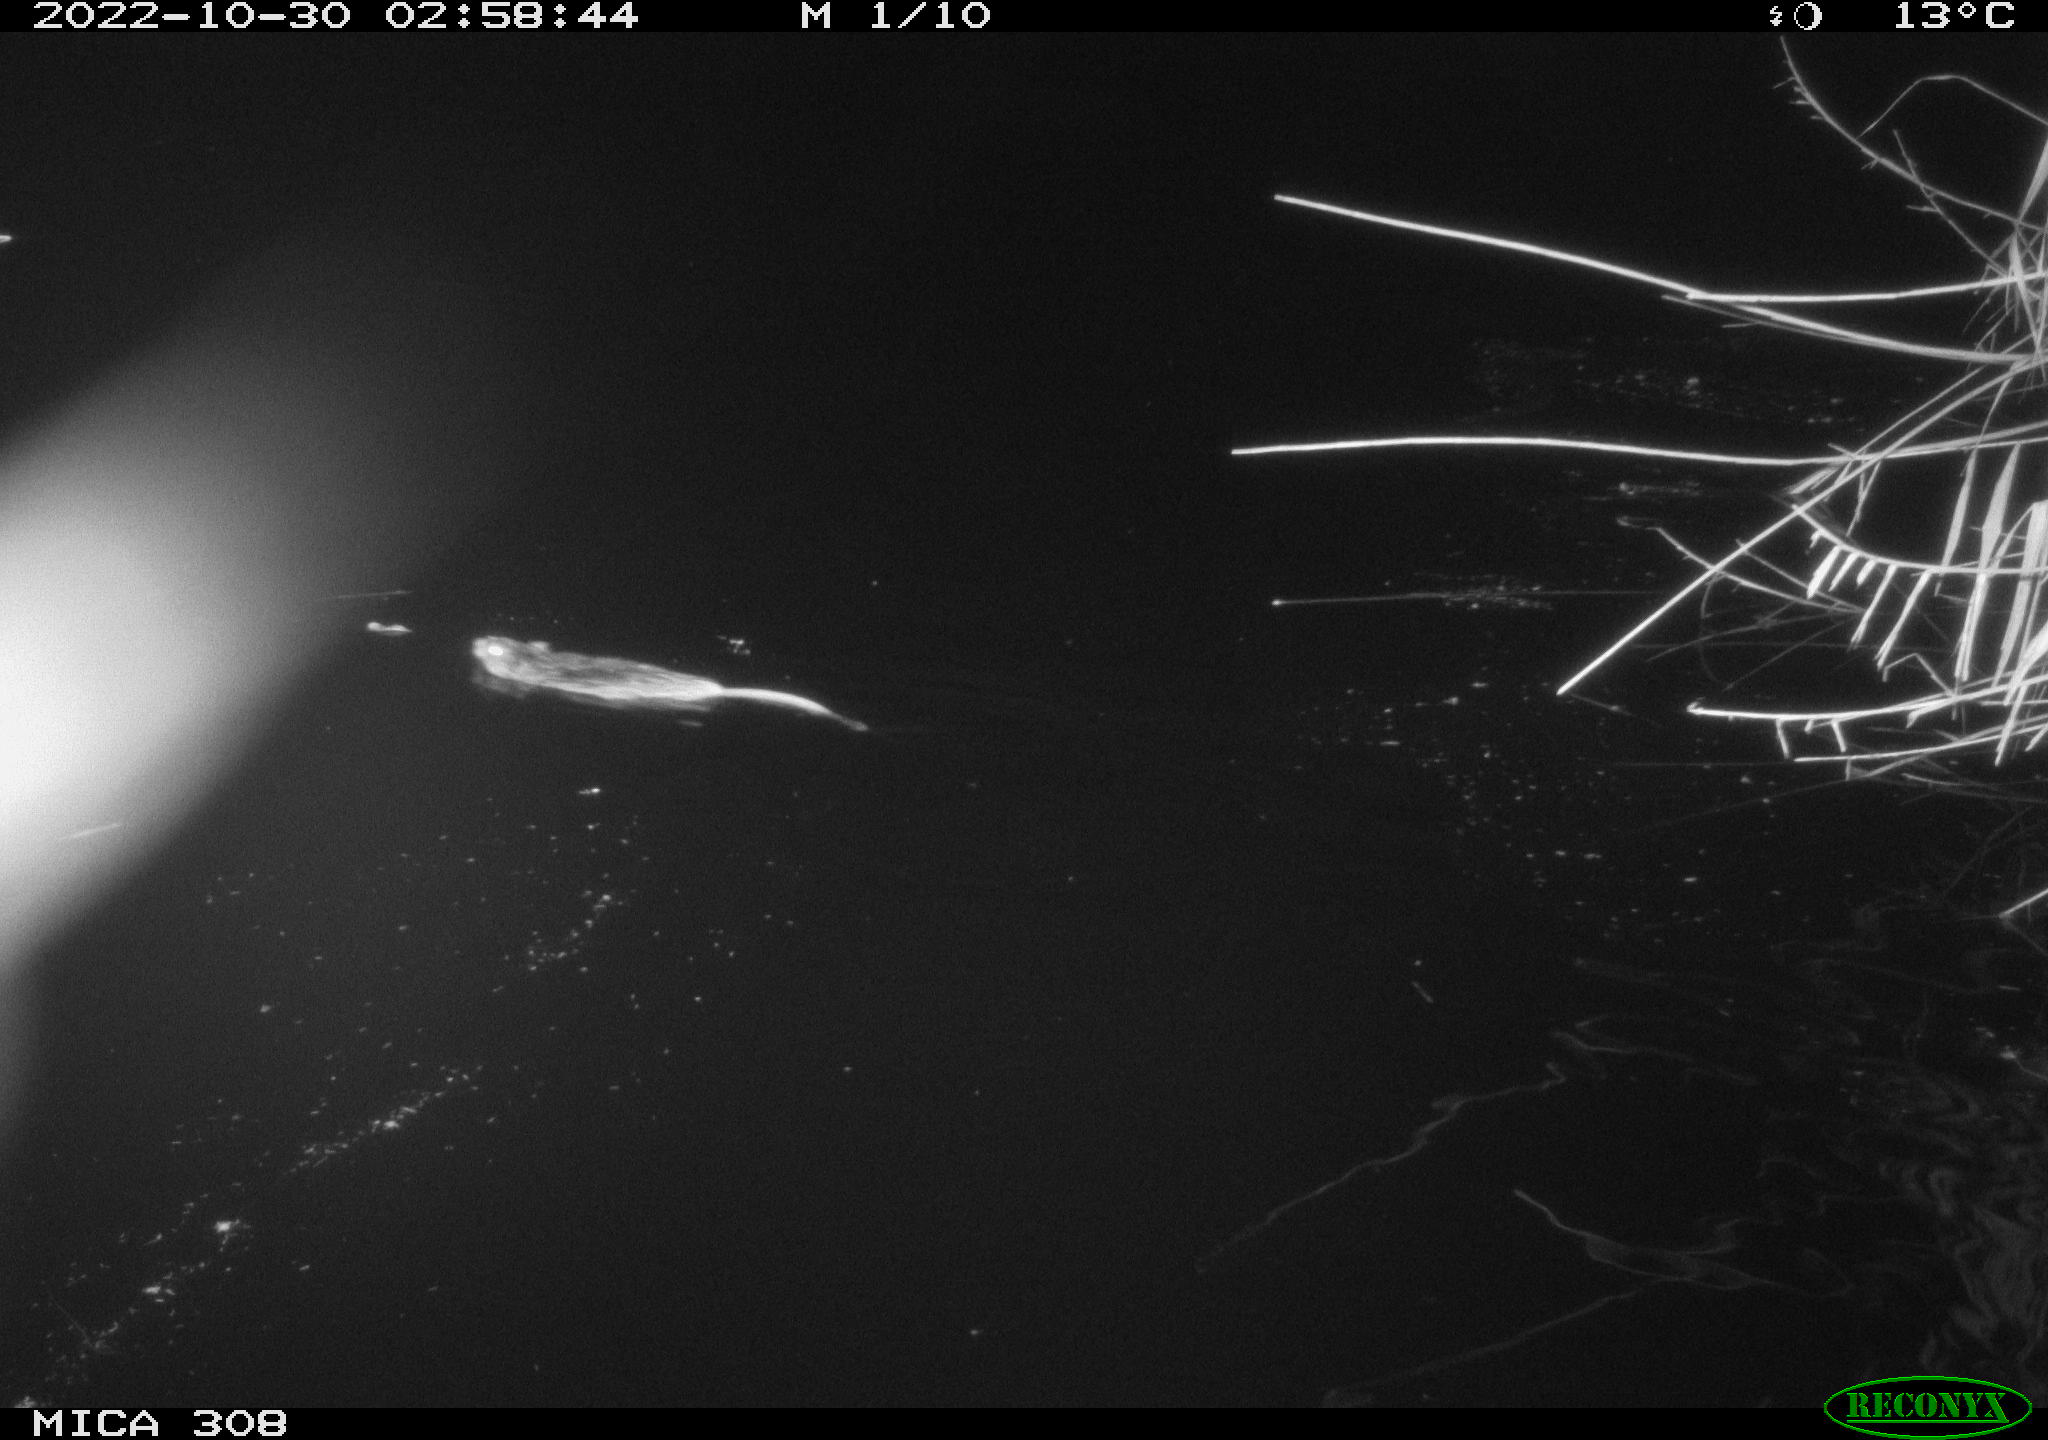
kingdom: Animalia
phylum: Chordata
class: Mammalia
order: Rodentia
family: Cricetidae
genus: Ondatra
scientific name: Ondatra zibethicus
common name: Muskrat
